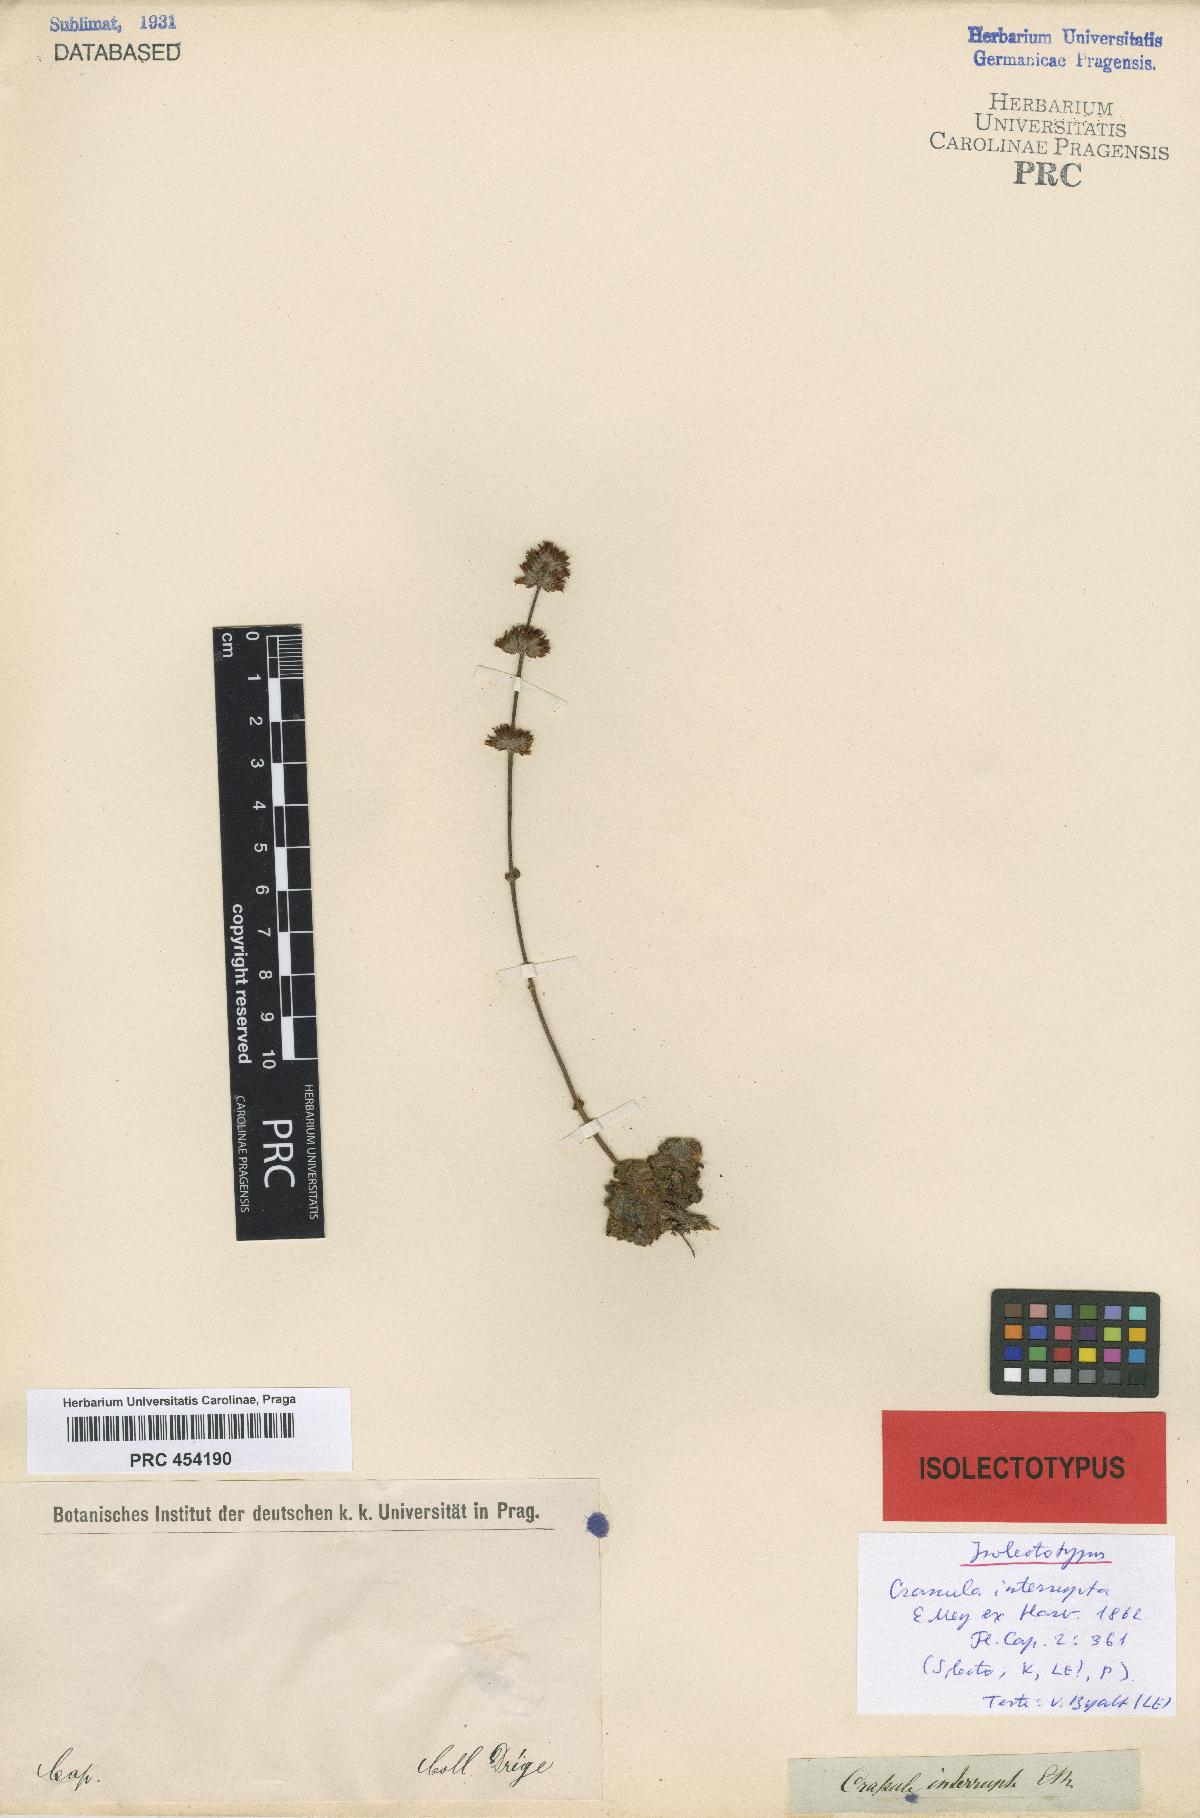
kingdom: Plantae
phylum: Tracheophyta
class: Magnoliopsida
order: Saxifragales
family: Crassulaceae
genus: Crassula
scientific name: Crassula tomentosa
